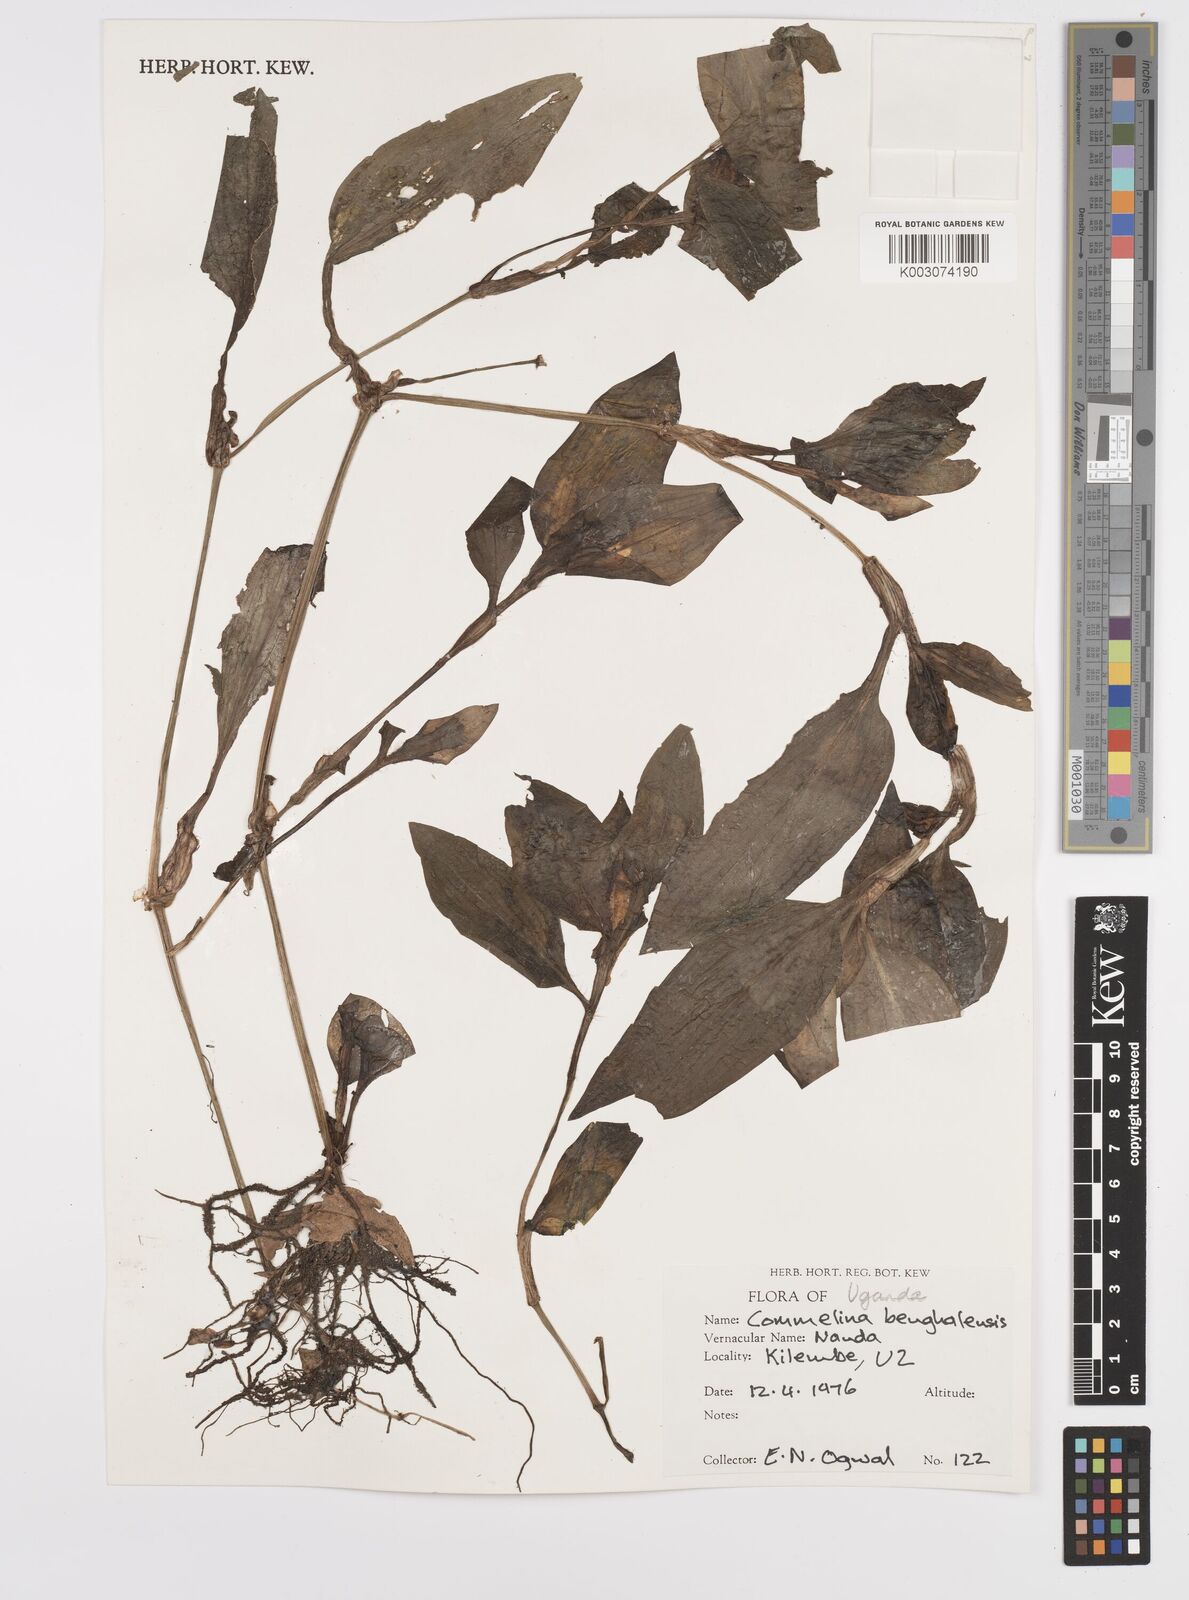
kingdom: Plantae
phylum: Tracheophyta
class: Liliopsida
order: Commelinales
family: Commelinaceae
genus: Commelina
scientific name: Commelina benghalensis
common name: Jio
